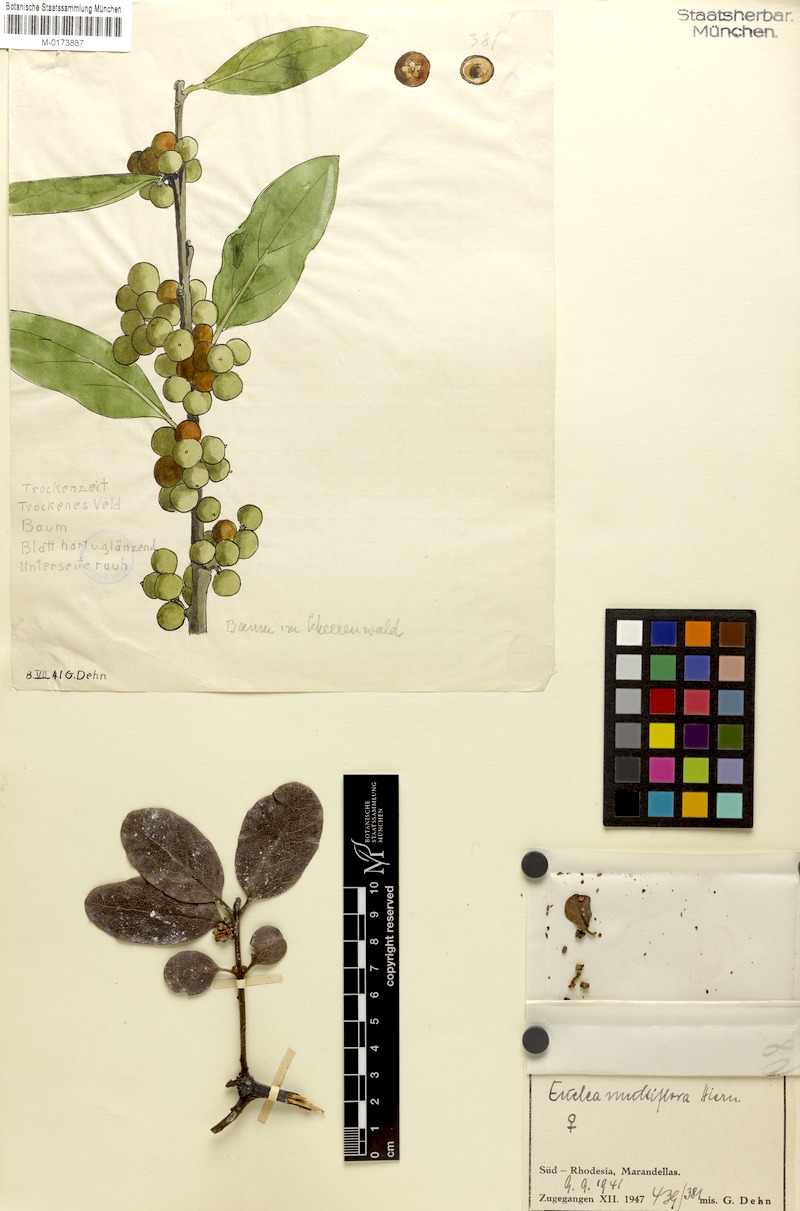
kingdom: Plantae
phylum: Tracheophyta
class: Magnoliopsida
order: Ericales
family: Ebenaceae
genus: Euclea
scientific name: Euclea natalensis
